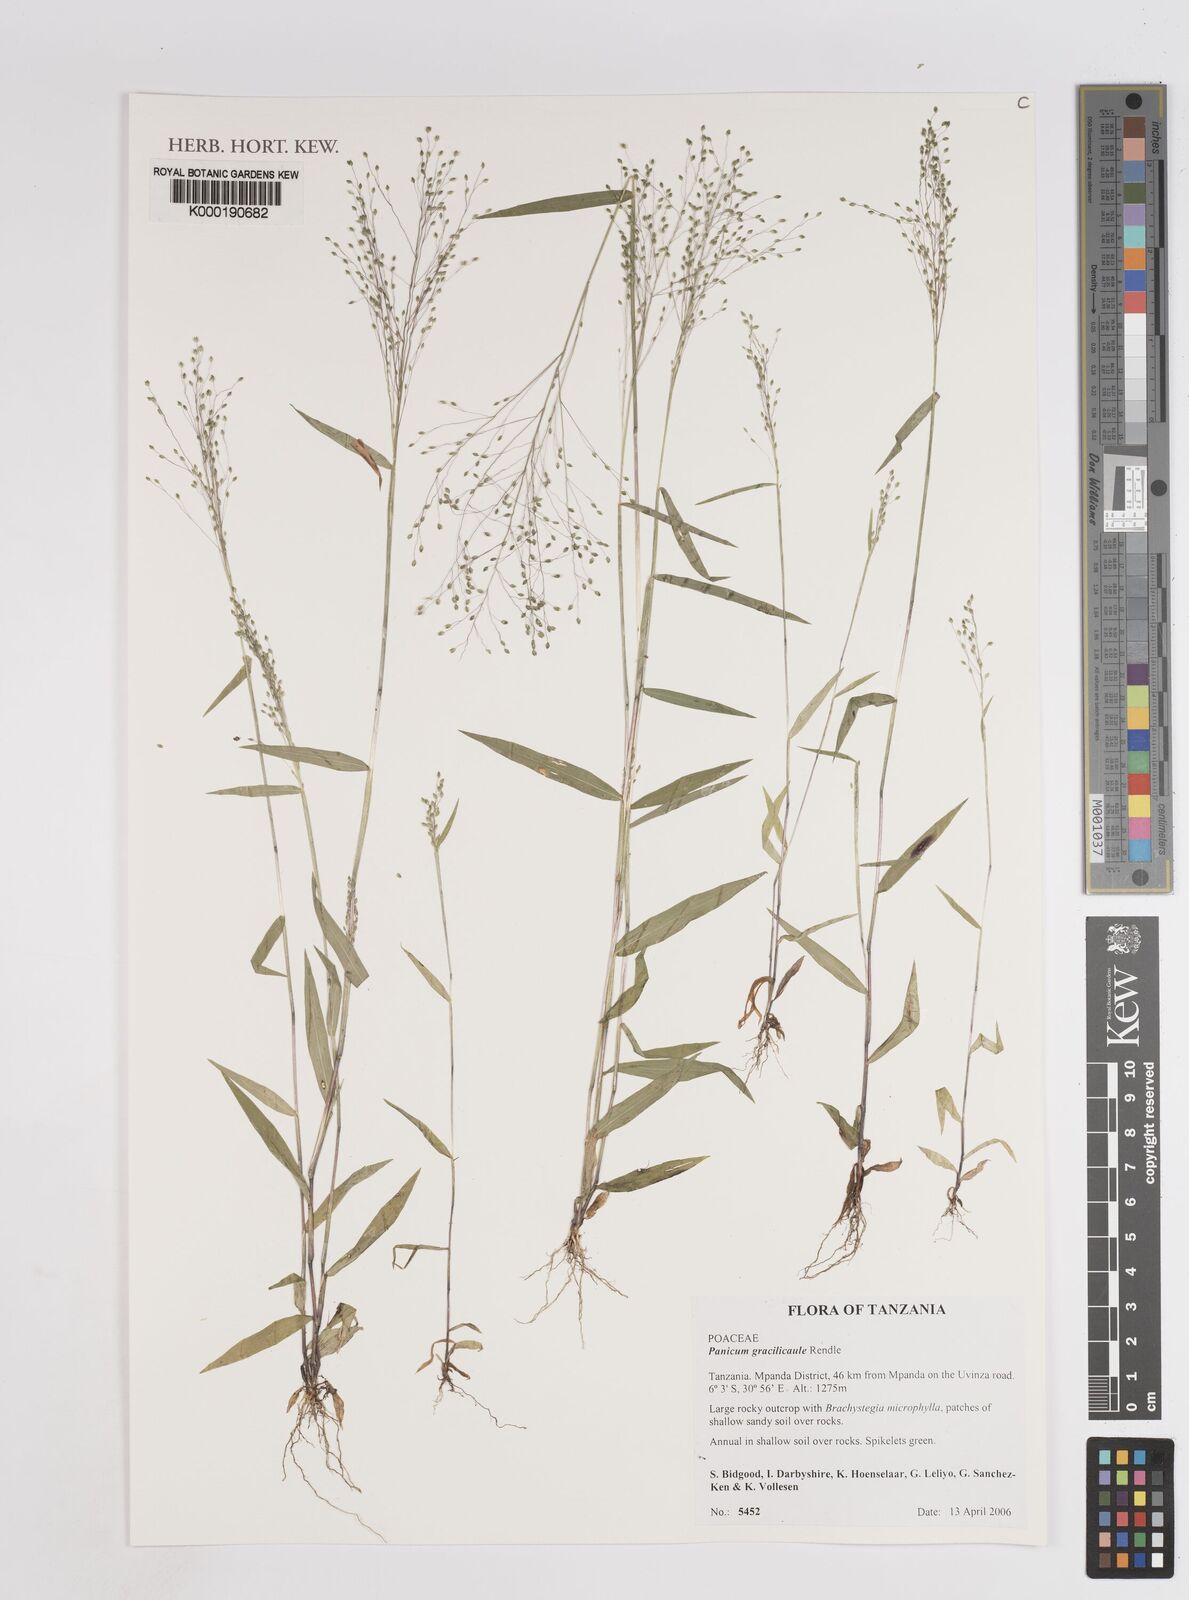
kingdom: Plantae
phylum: Tracheophyta
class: Liliopsida
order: Poales
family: Poaceae
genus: Trichanthecium
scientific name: Trichanthecium gracilicaule
